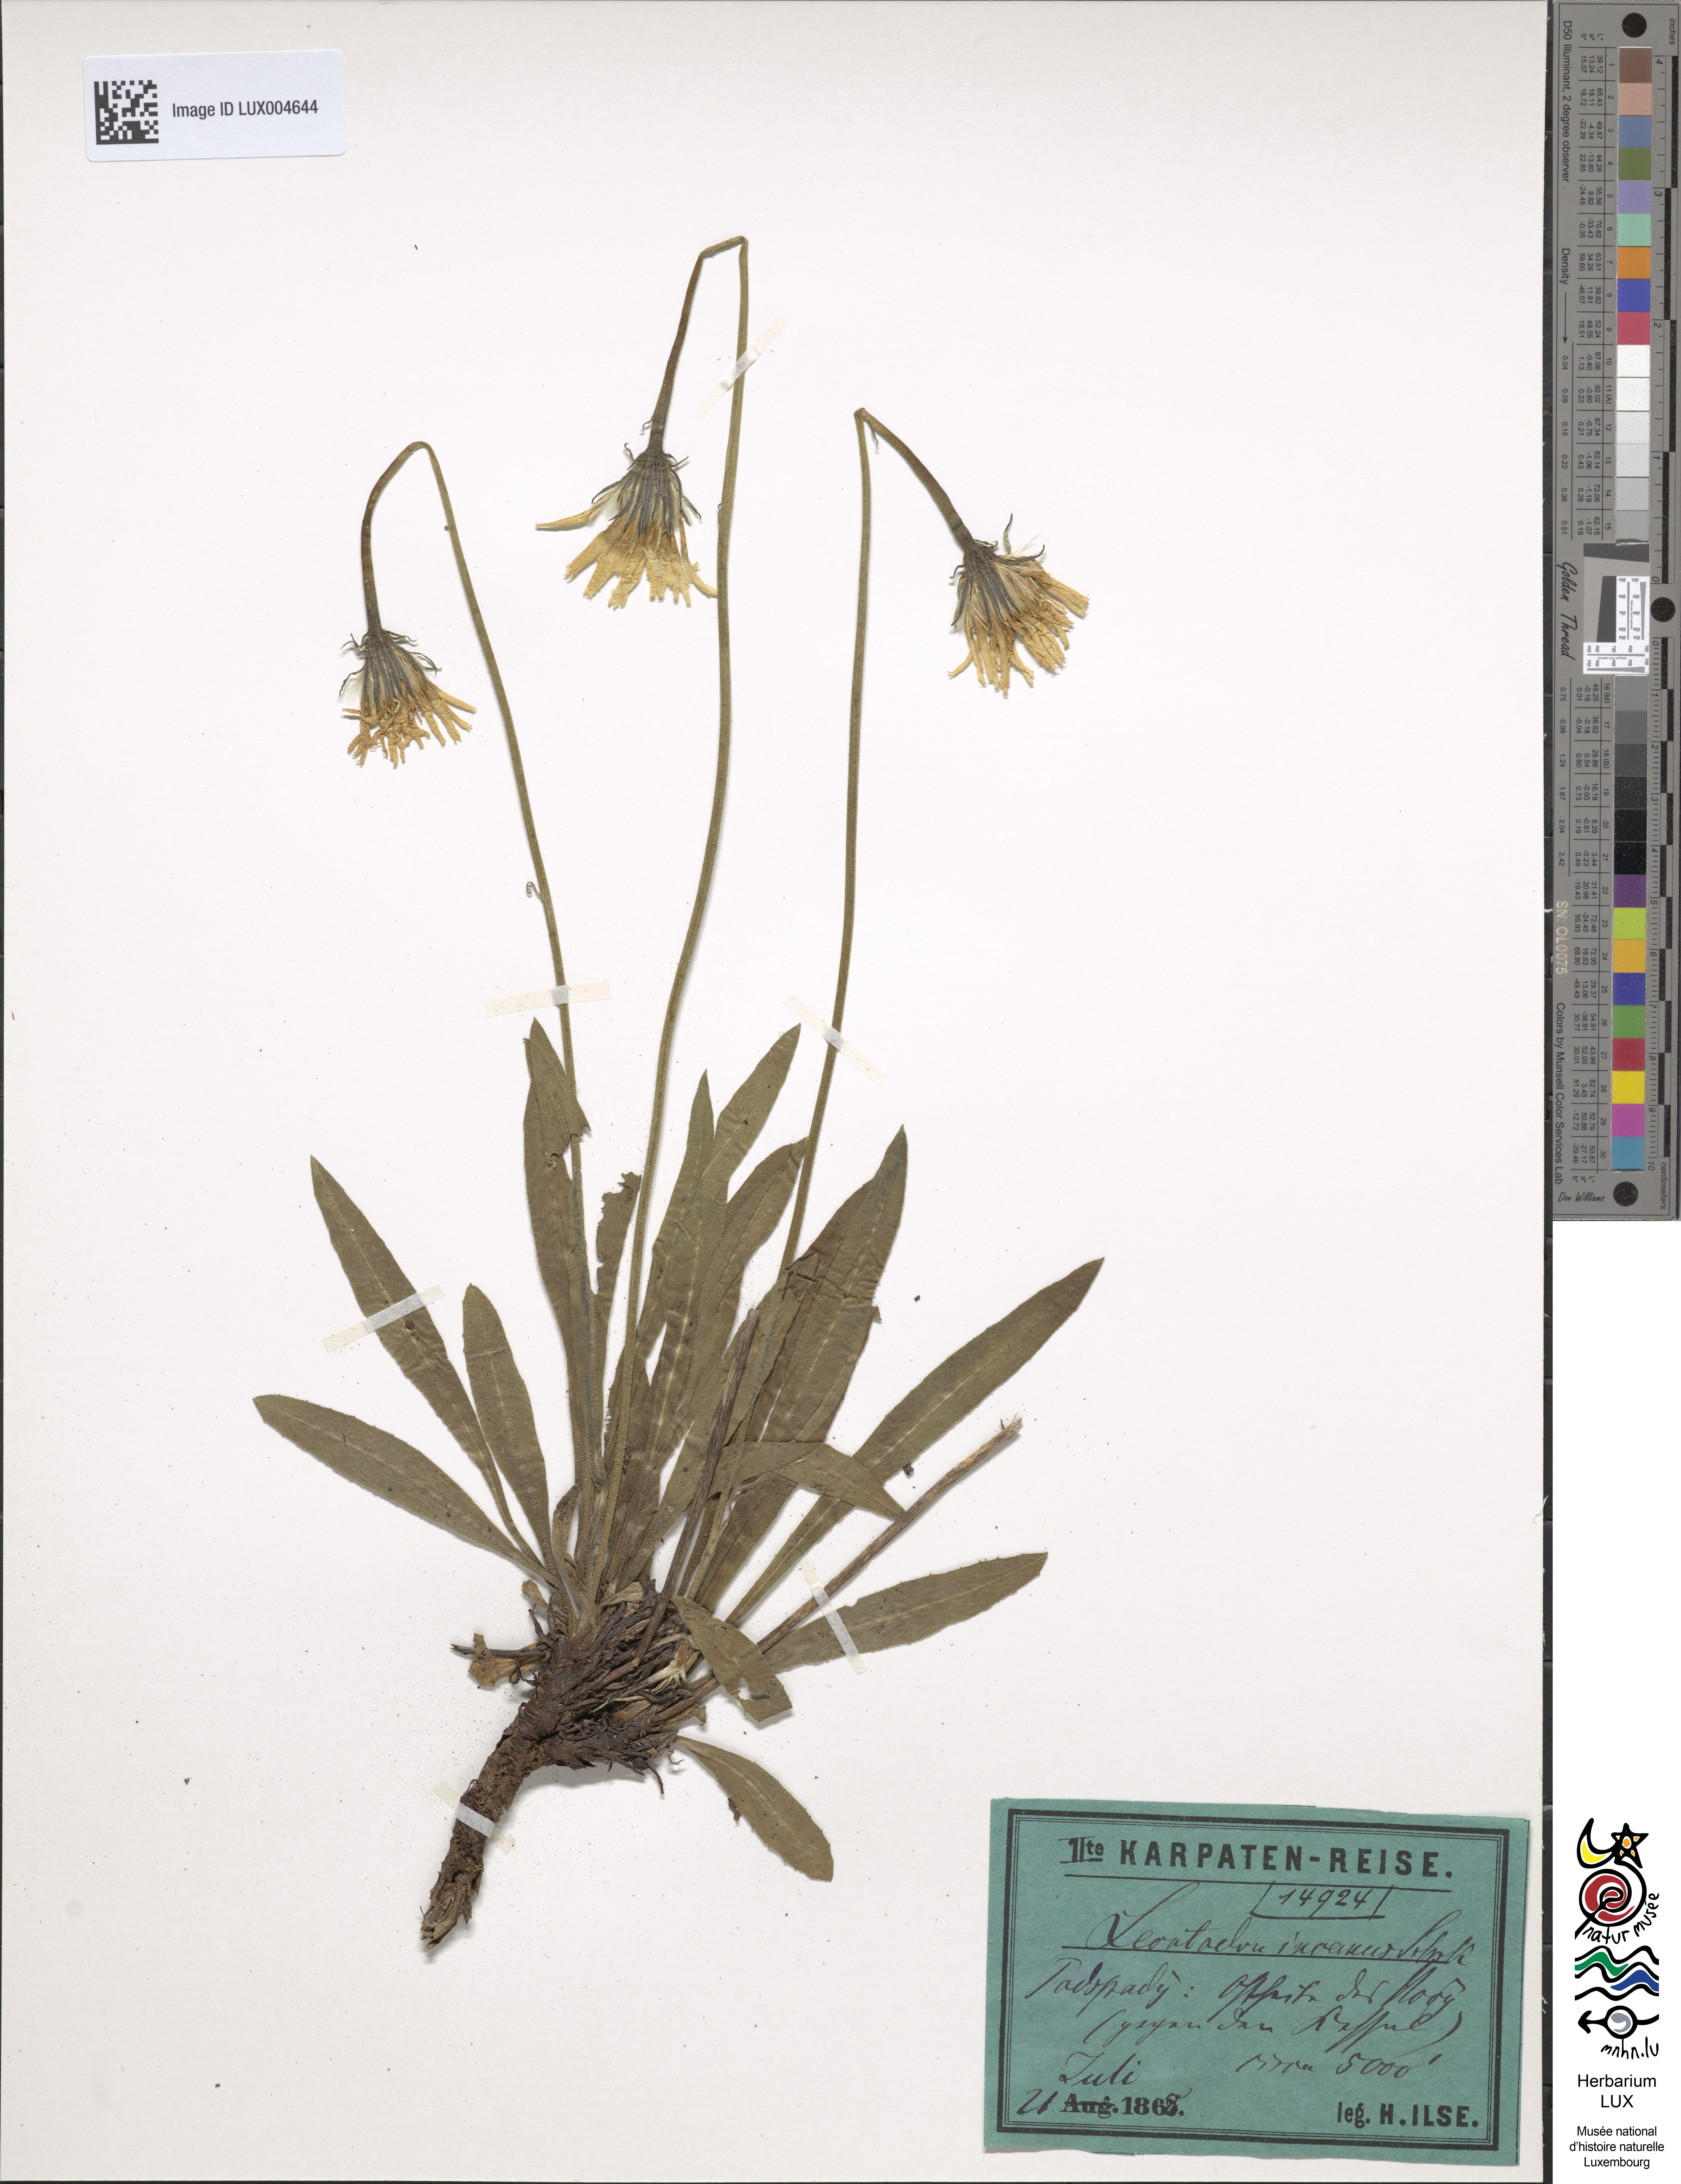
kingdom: Plantae
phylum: Tracheophyta
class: Magnoliopsida
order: Asterales
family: Asteraceae
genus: Leontodon
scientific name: Leontodon incanus
